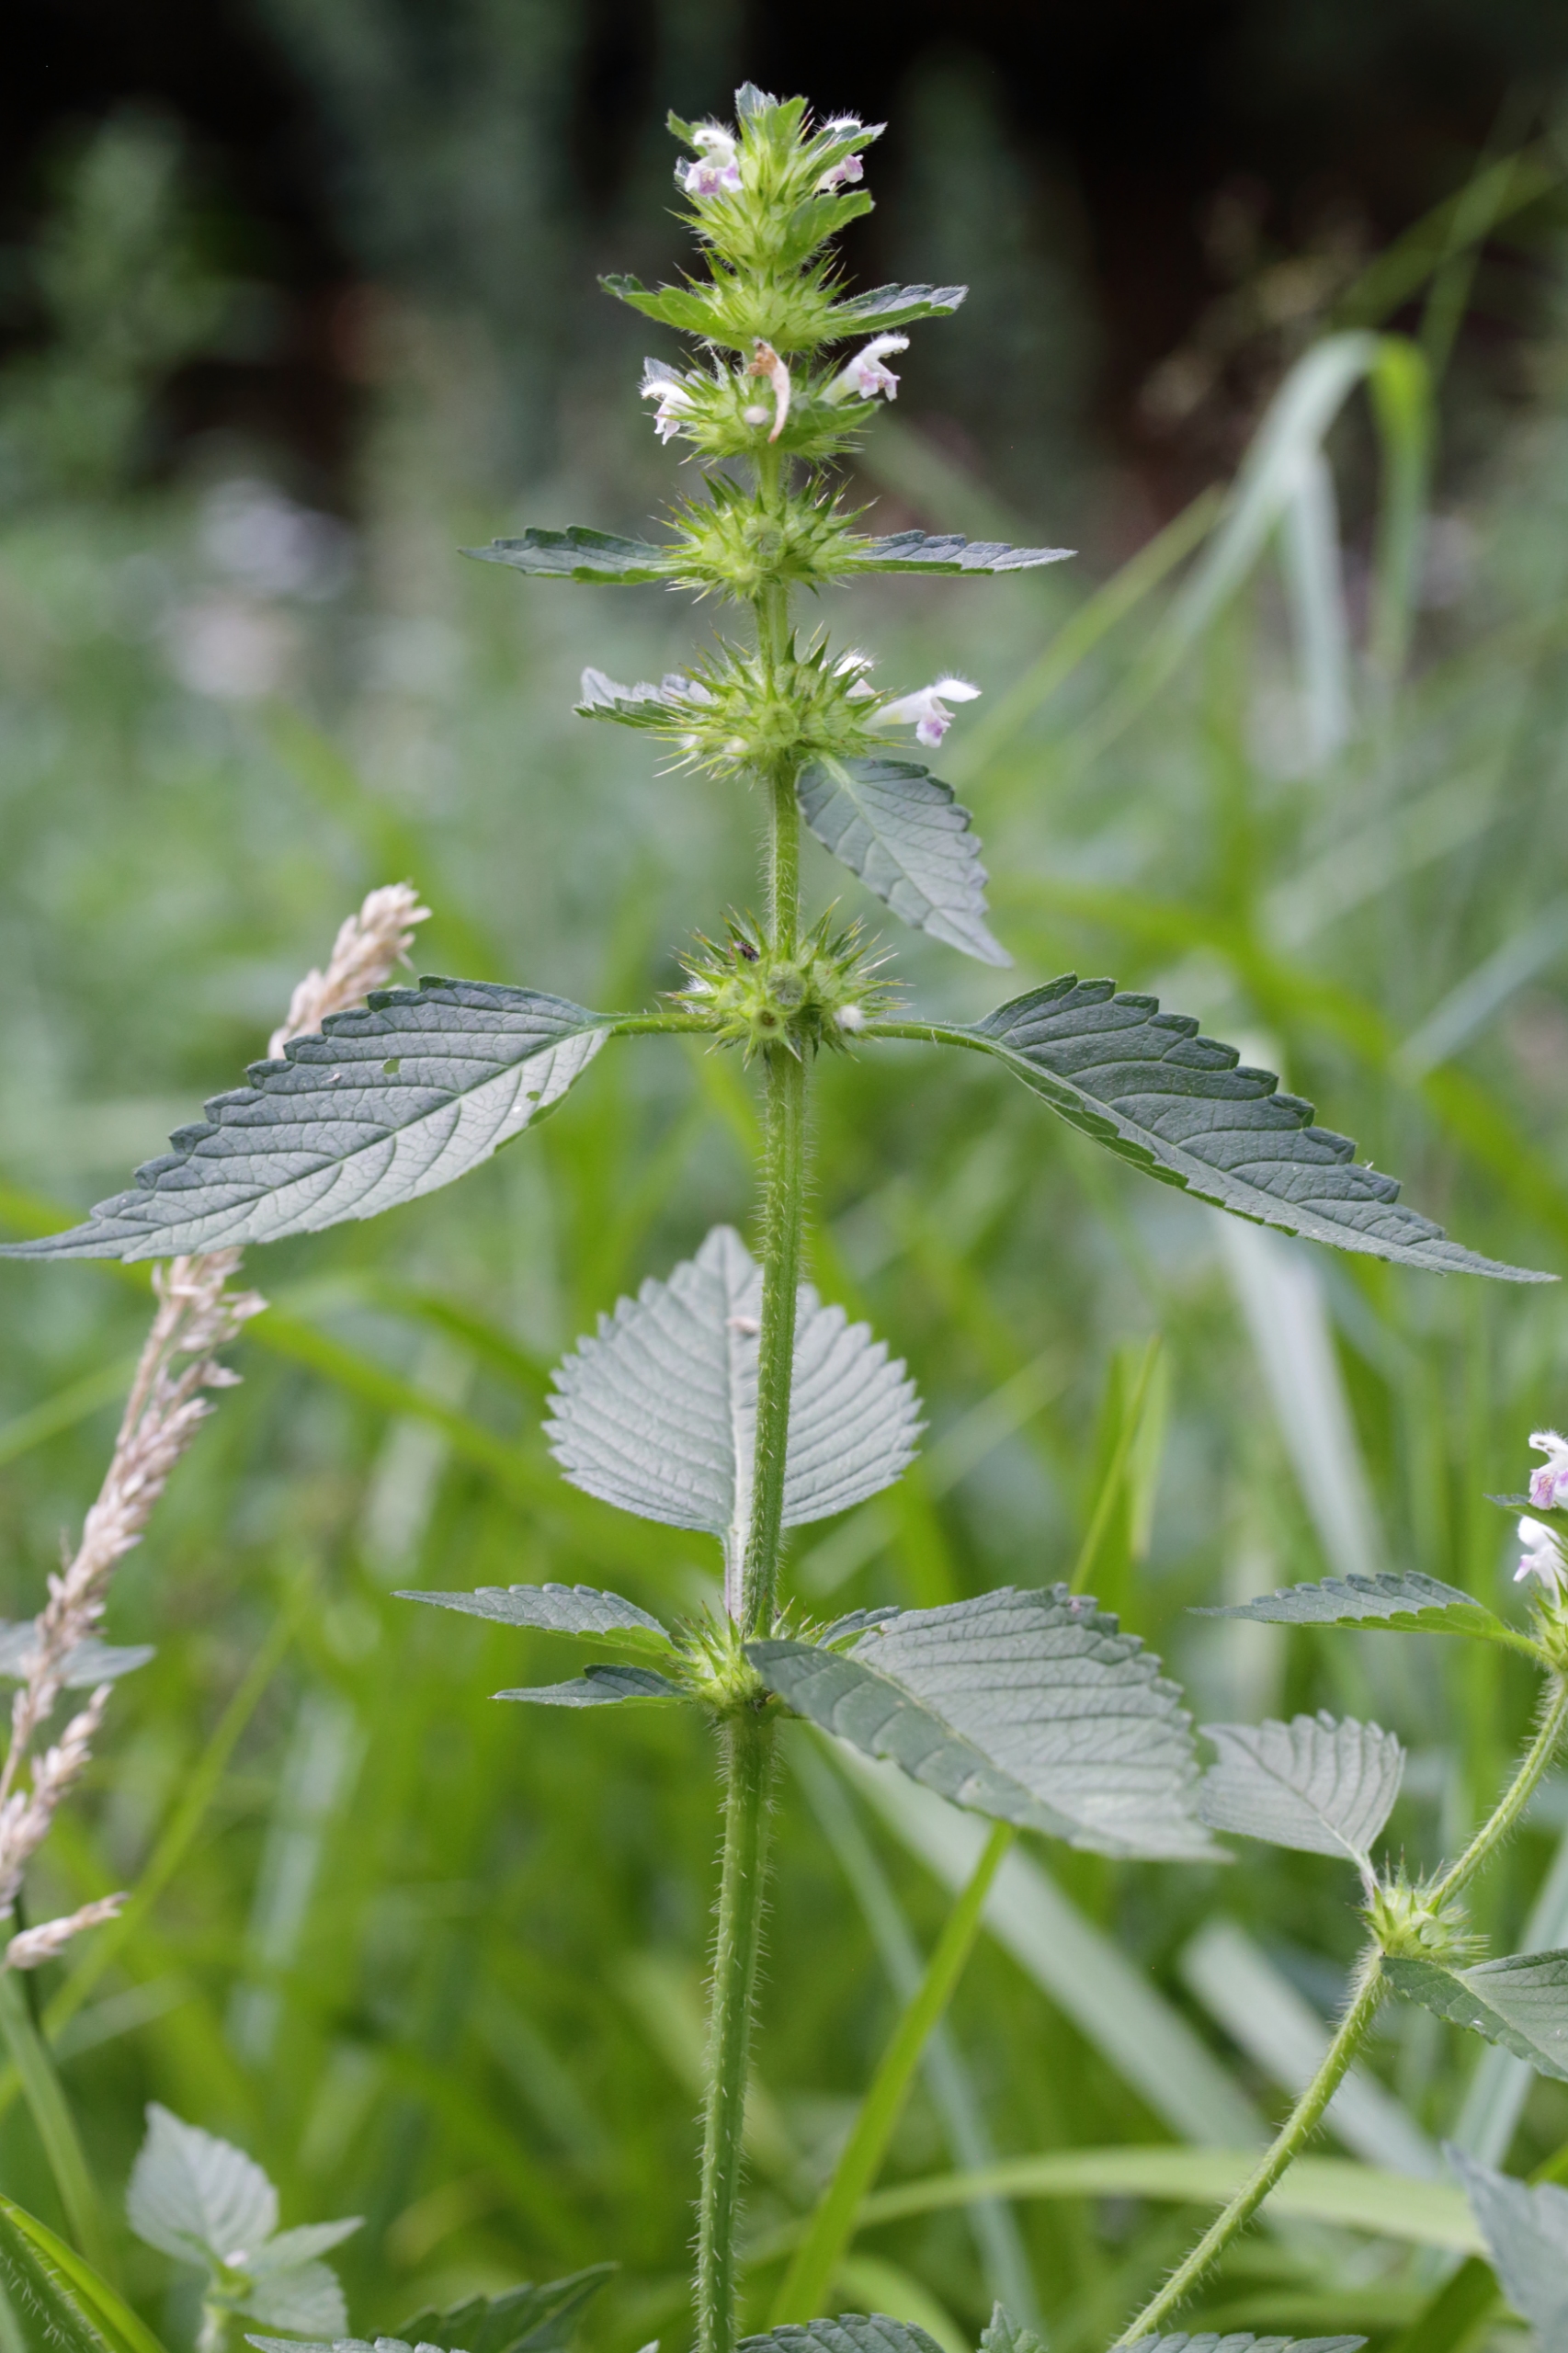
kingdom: Plantae
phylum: Tracheophyta
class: Magnoliopsida
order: Lamiales
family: Lamiaceae
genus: Galeopsis
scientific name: Galeopsis tetrahit
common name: Almindelig hanekro
